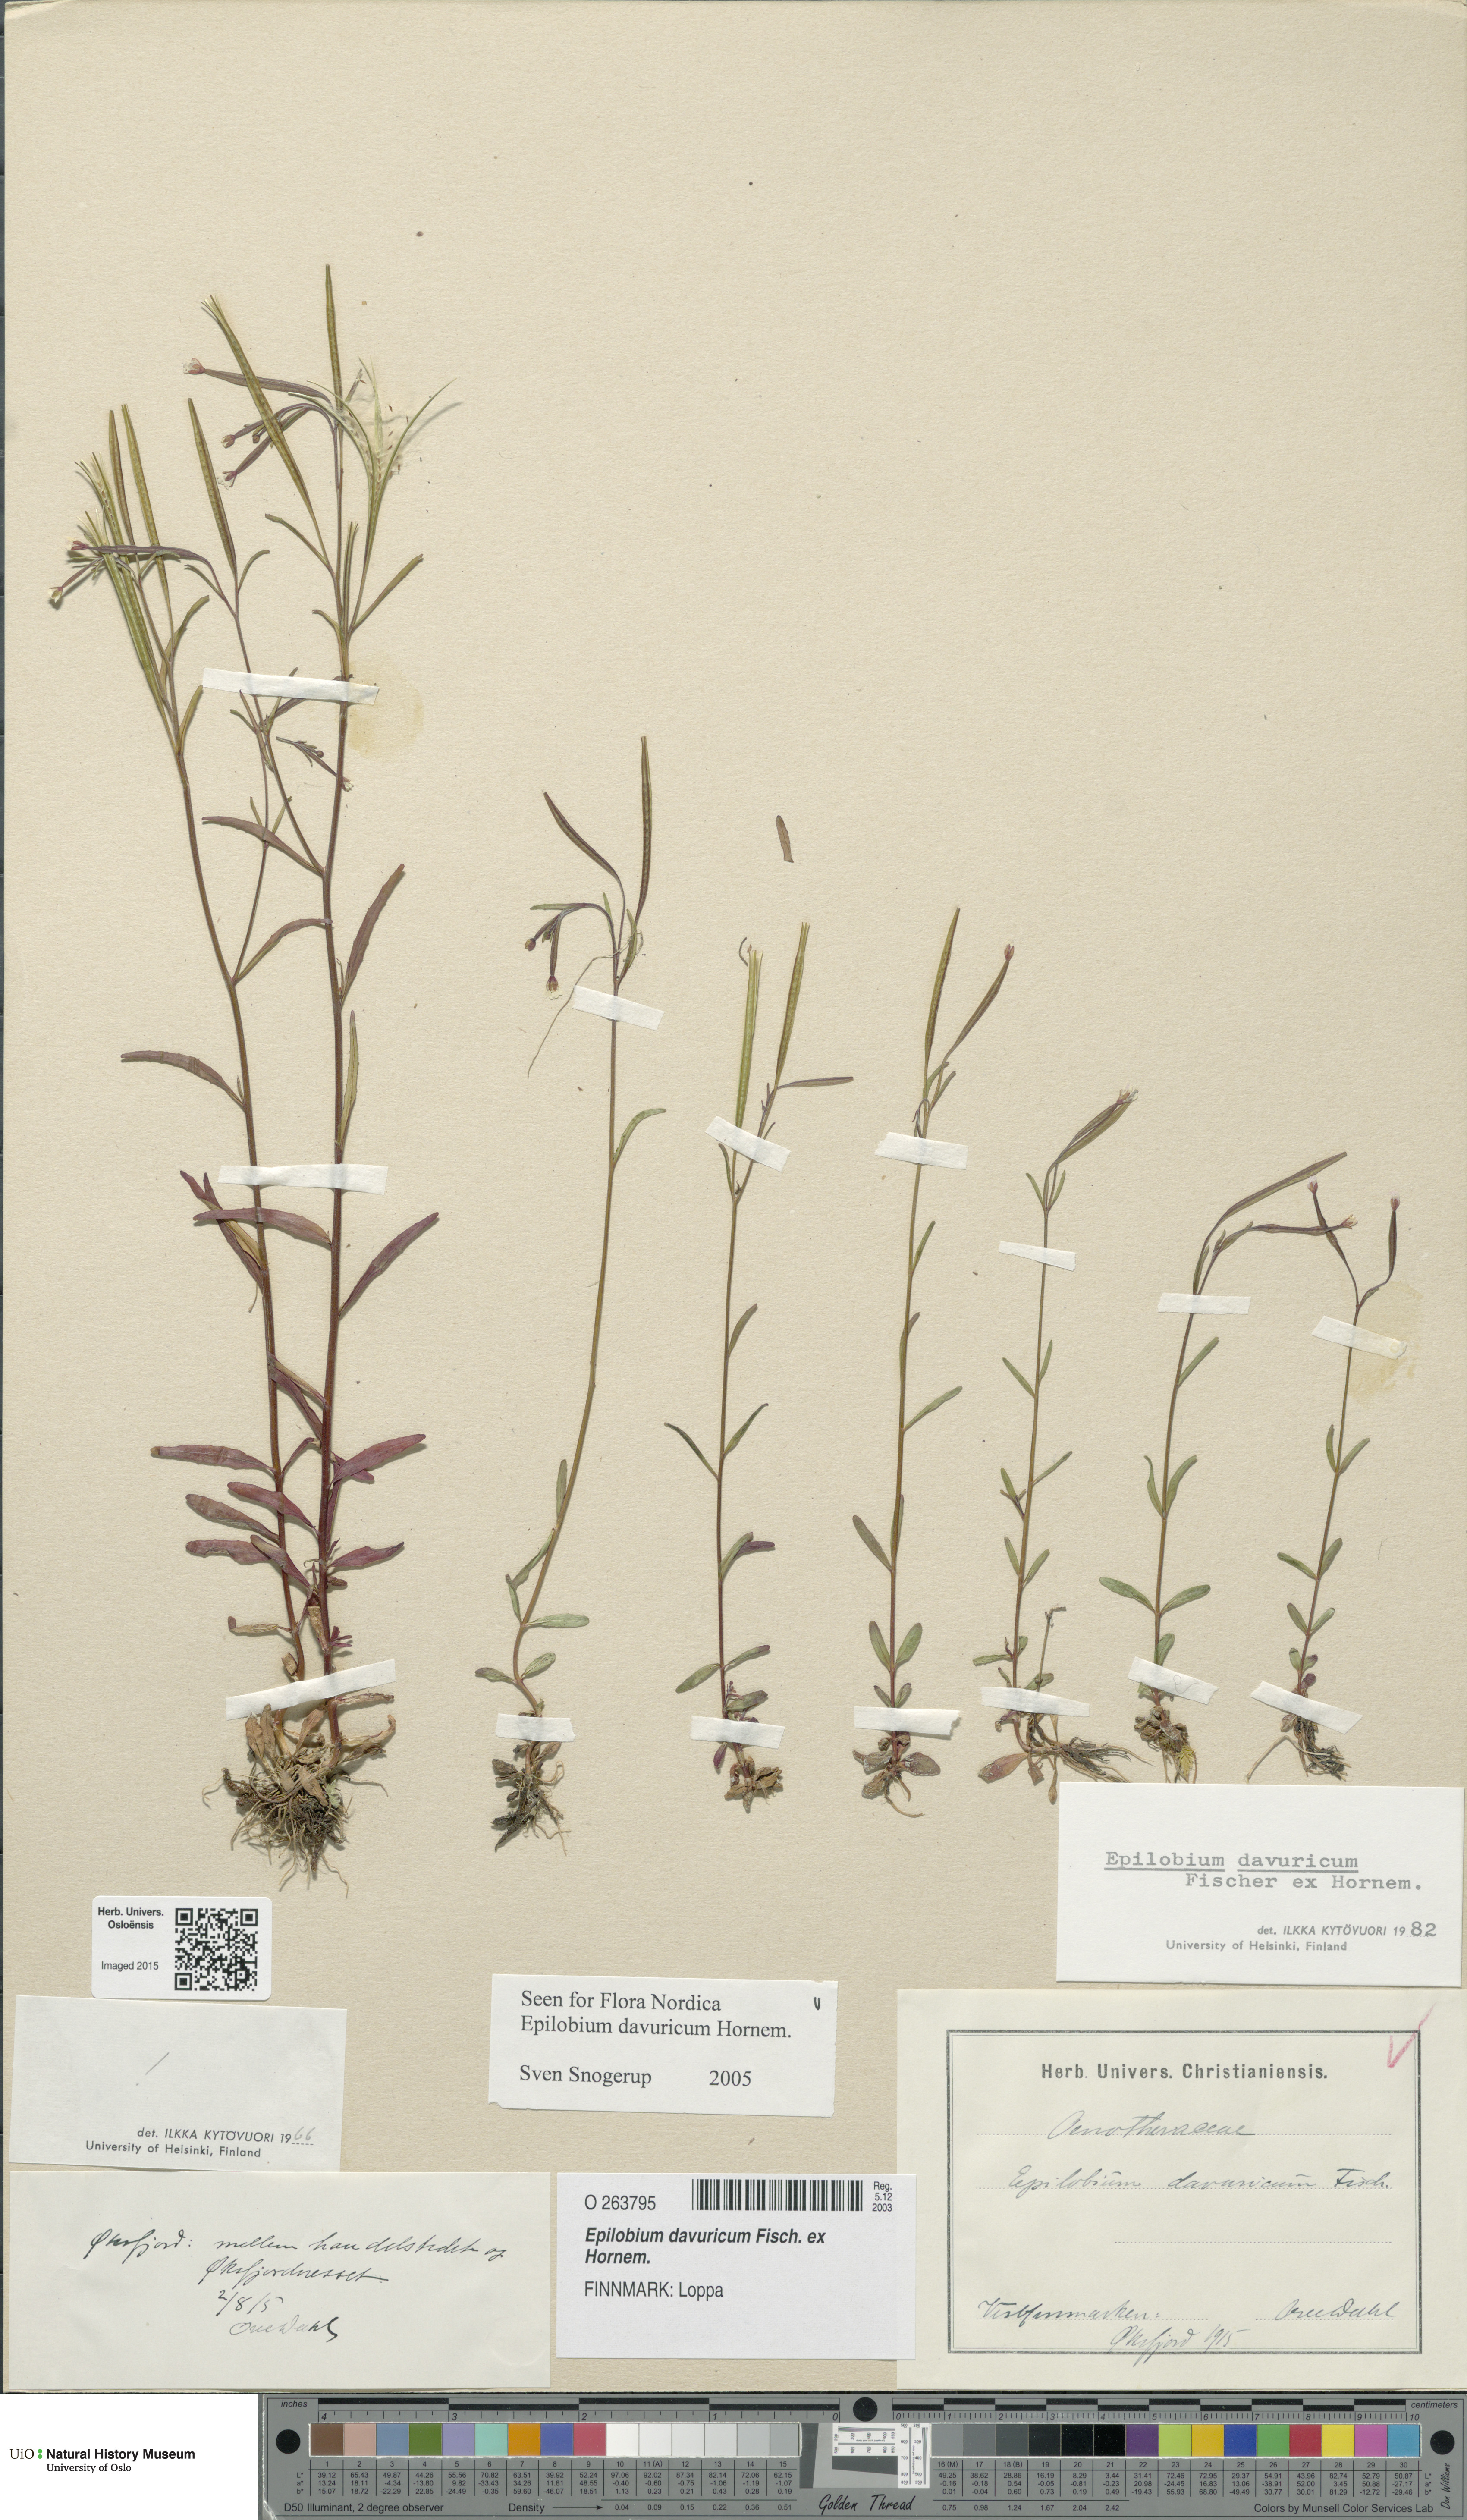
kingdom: Plantae
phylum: Tracheophyta
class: Magnoliopsida
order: Myrtales
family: Onagraceae
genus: Epilobium
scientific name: Epilobium davuricum
